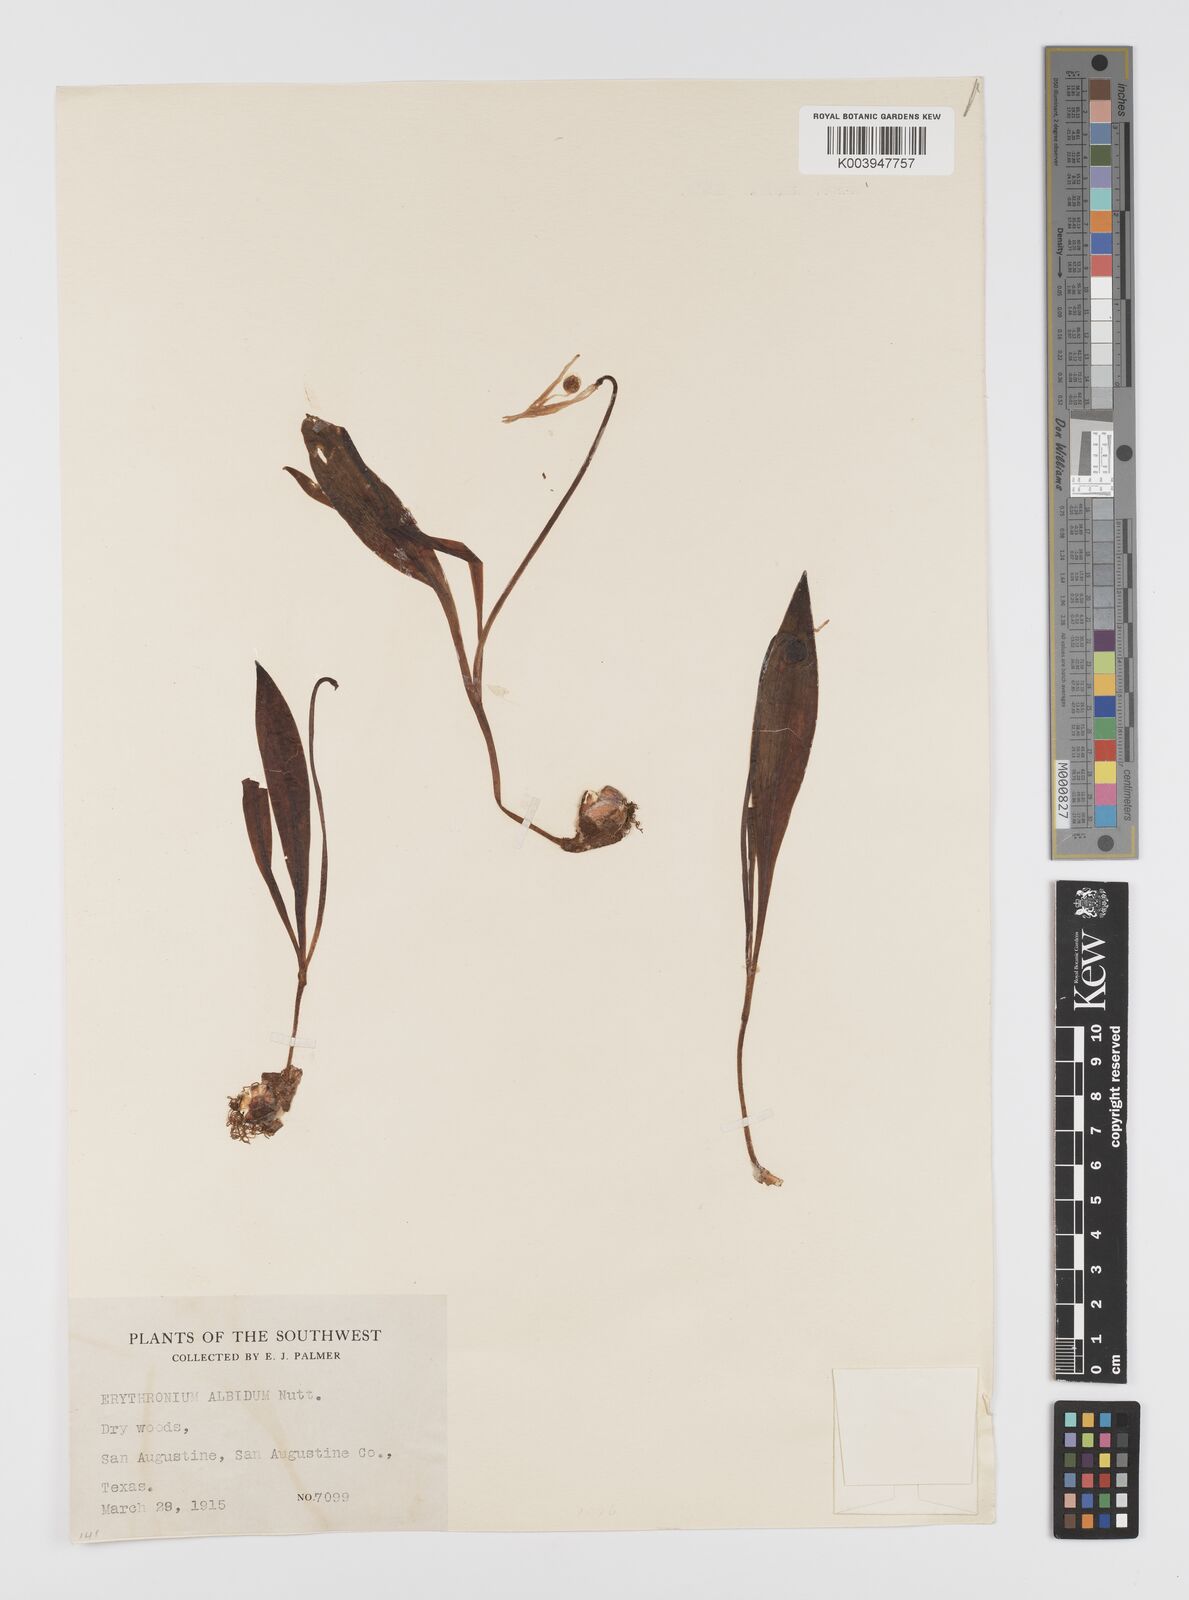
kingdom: Plantae
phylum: Tracheophyta
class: Liliopsida
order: Liliales
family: Liliaceae
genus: Erythronium
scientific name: Erythronium albidum
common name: White trout-lily
